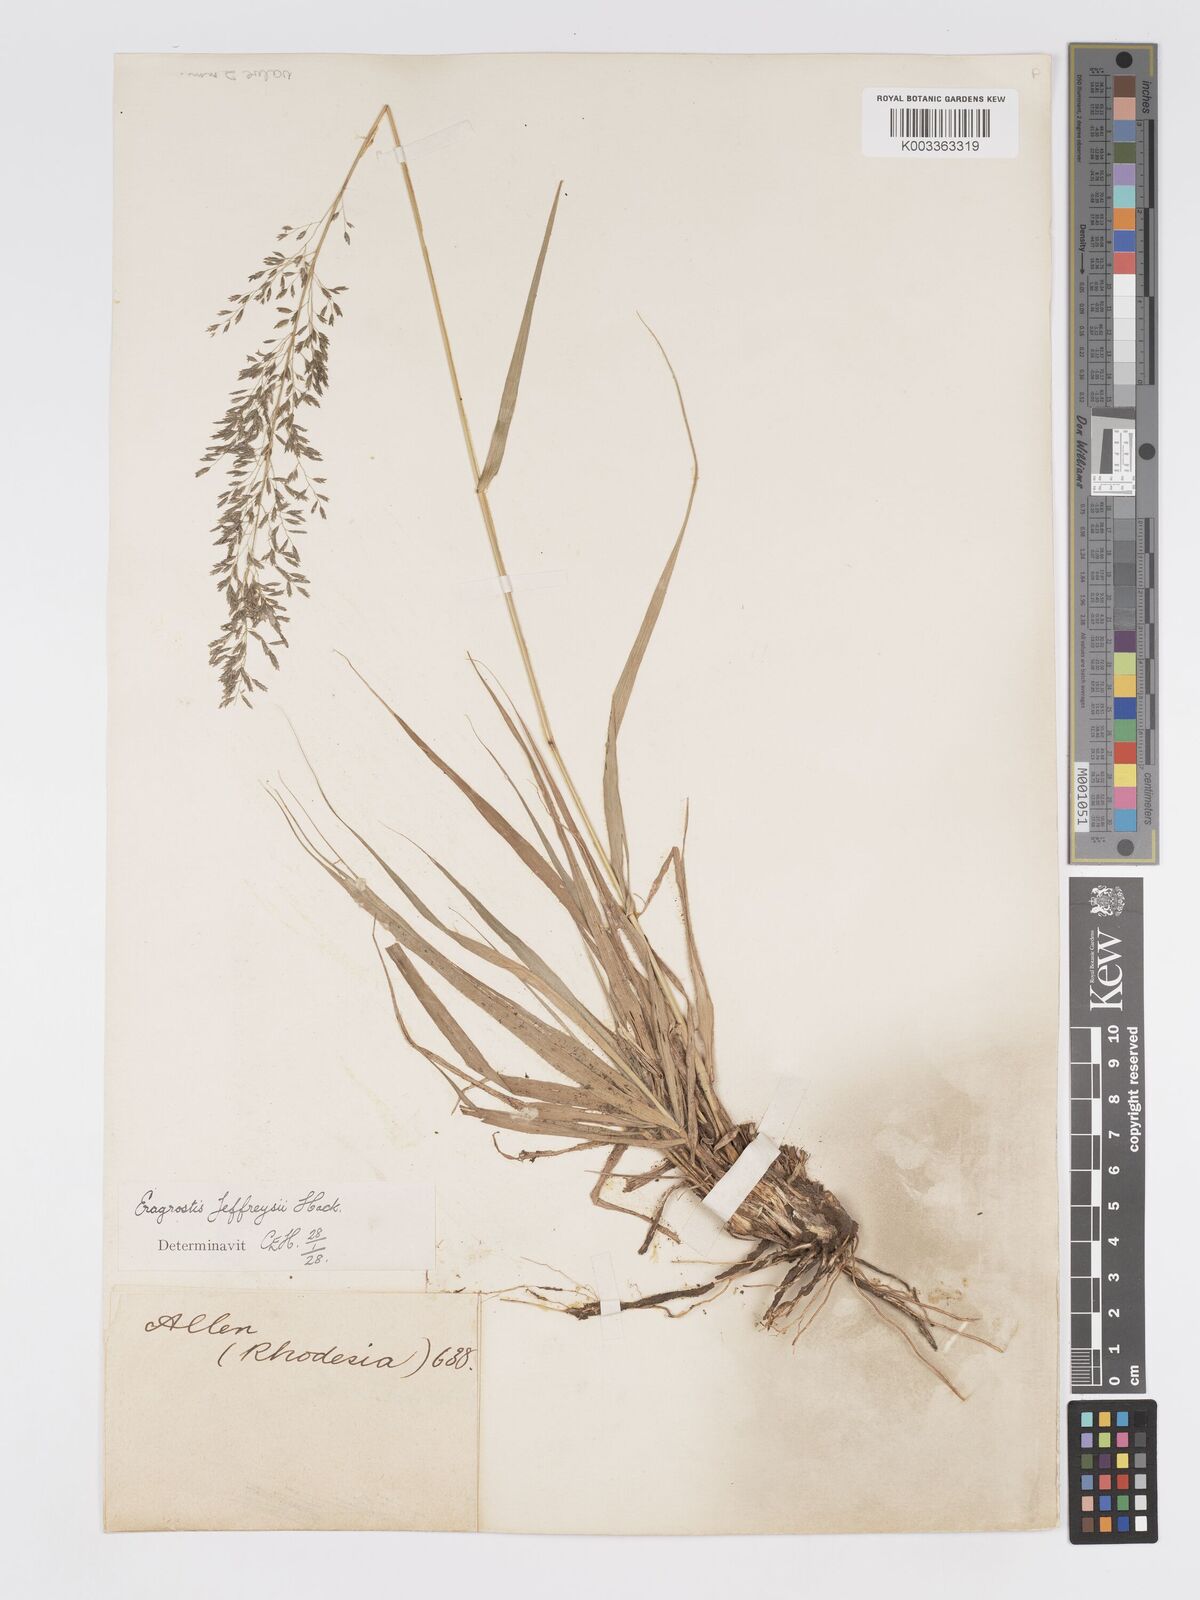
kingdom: Plantae
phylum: Tracheophyta
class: Liliopsida
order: Poales
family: Poaceae
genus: Eragrostis
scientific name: Eragrostis curvula
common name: African love-grass
